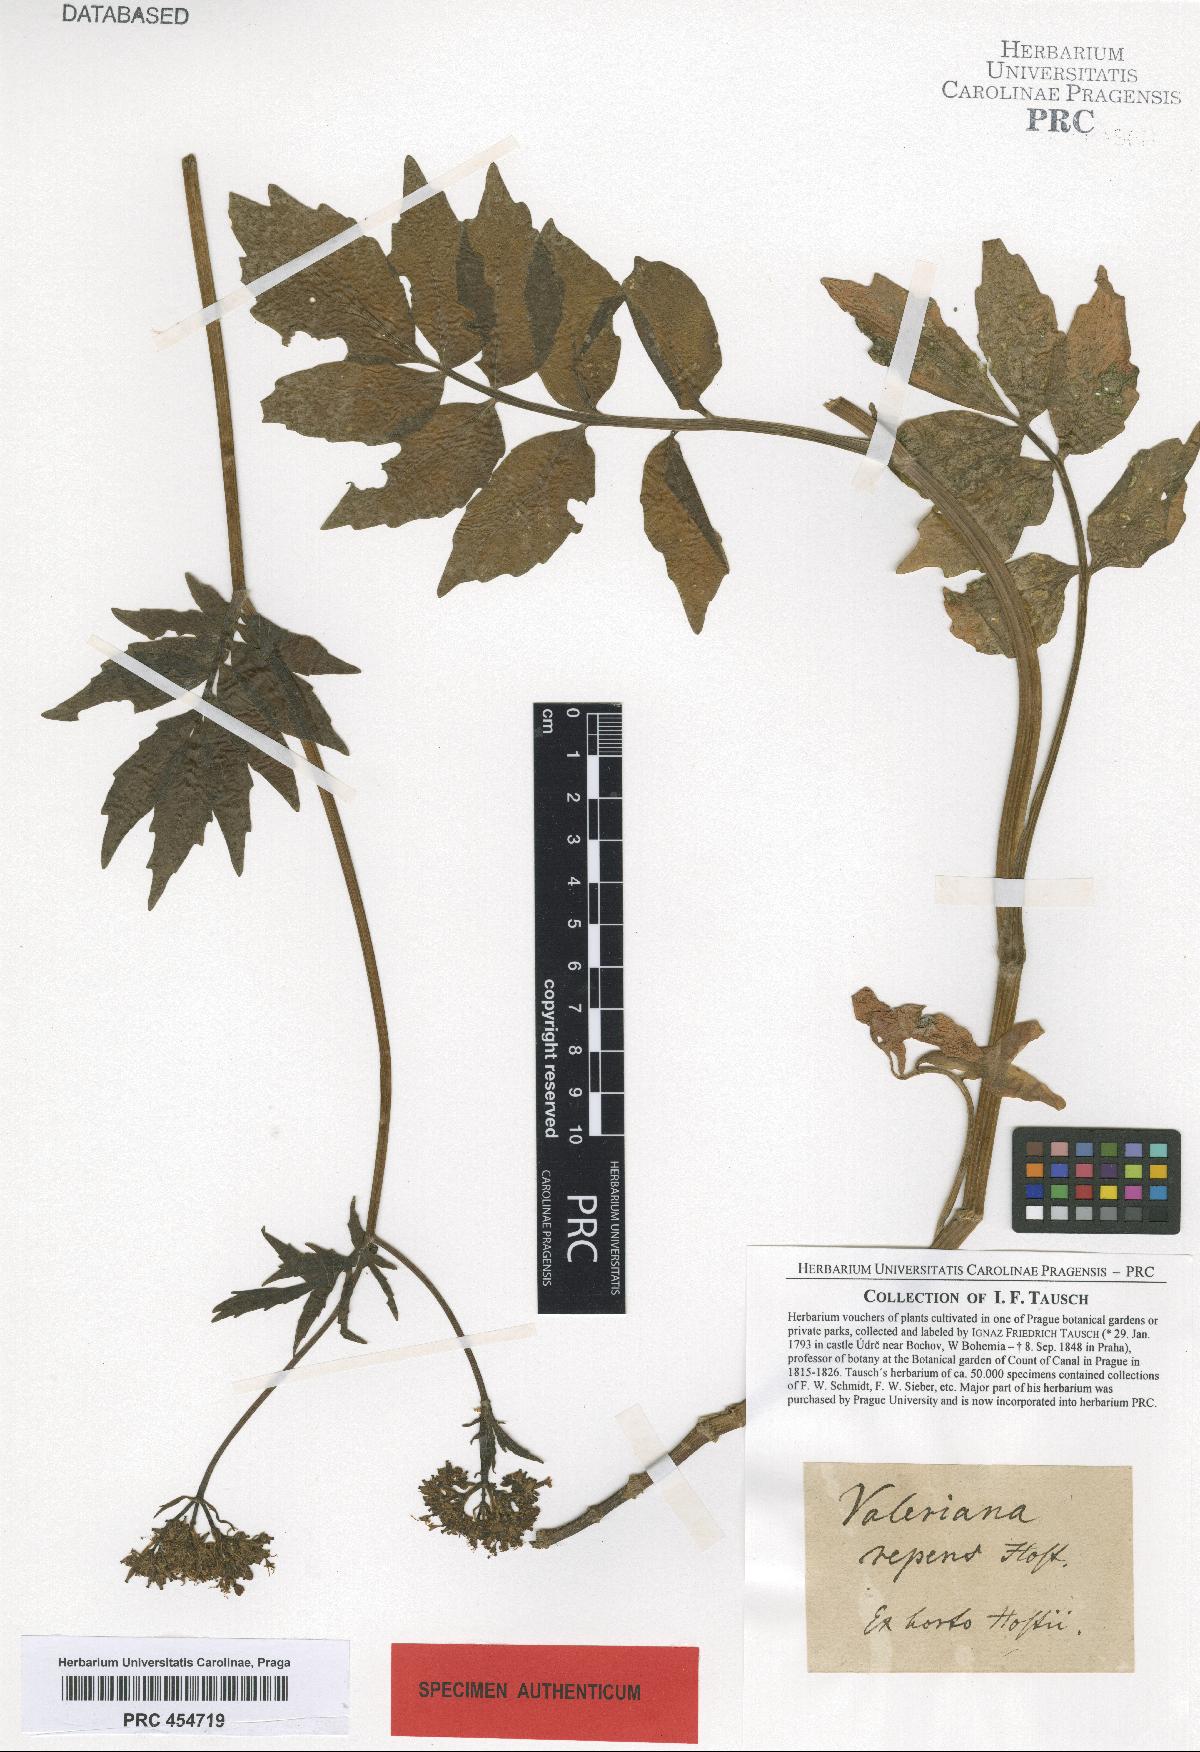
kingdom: Plantae
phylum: Tracheophyta
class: Magnoliopsida
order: Dipsacales
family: Caprifoliaceae
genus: Valeriana
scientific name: Valeriana excelsa
